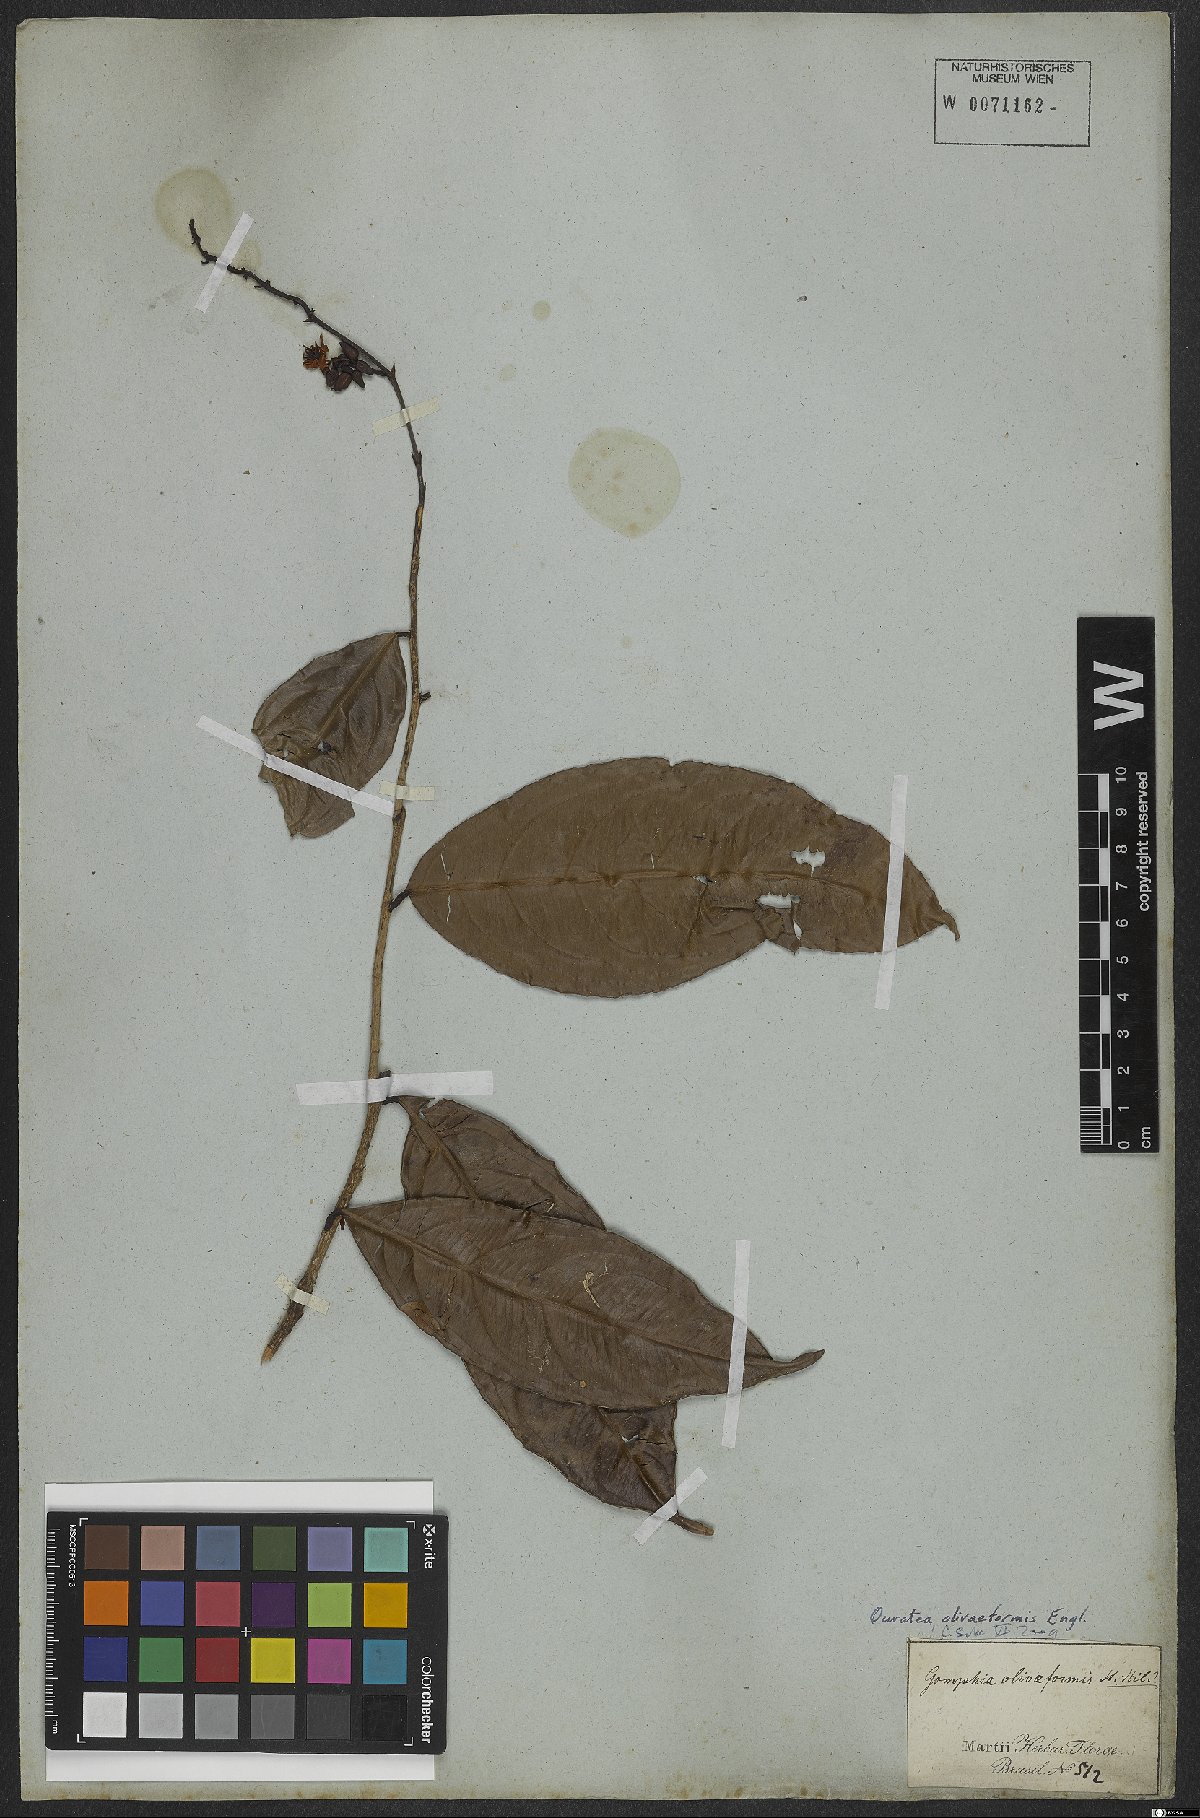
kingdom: Plantae
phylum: Tracheophyta
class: Magnoliopsida
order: Malpighiales
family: Ochnaceae
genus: Ouratea
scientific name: Ouratea oliviformis
